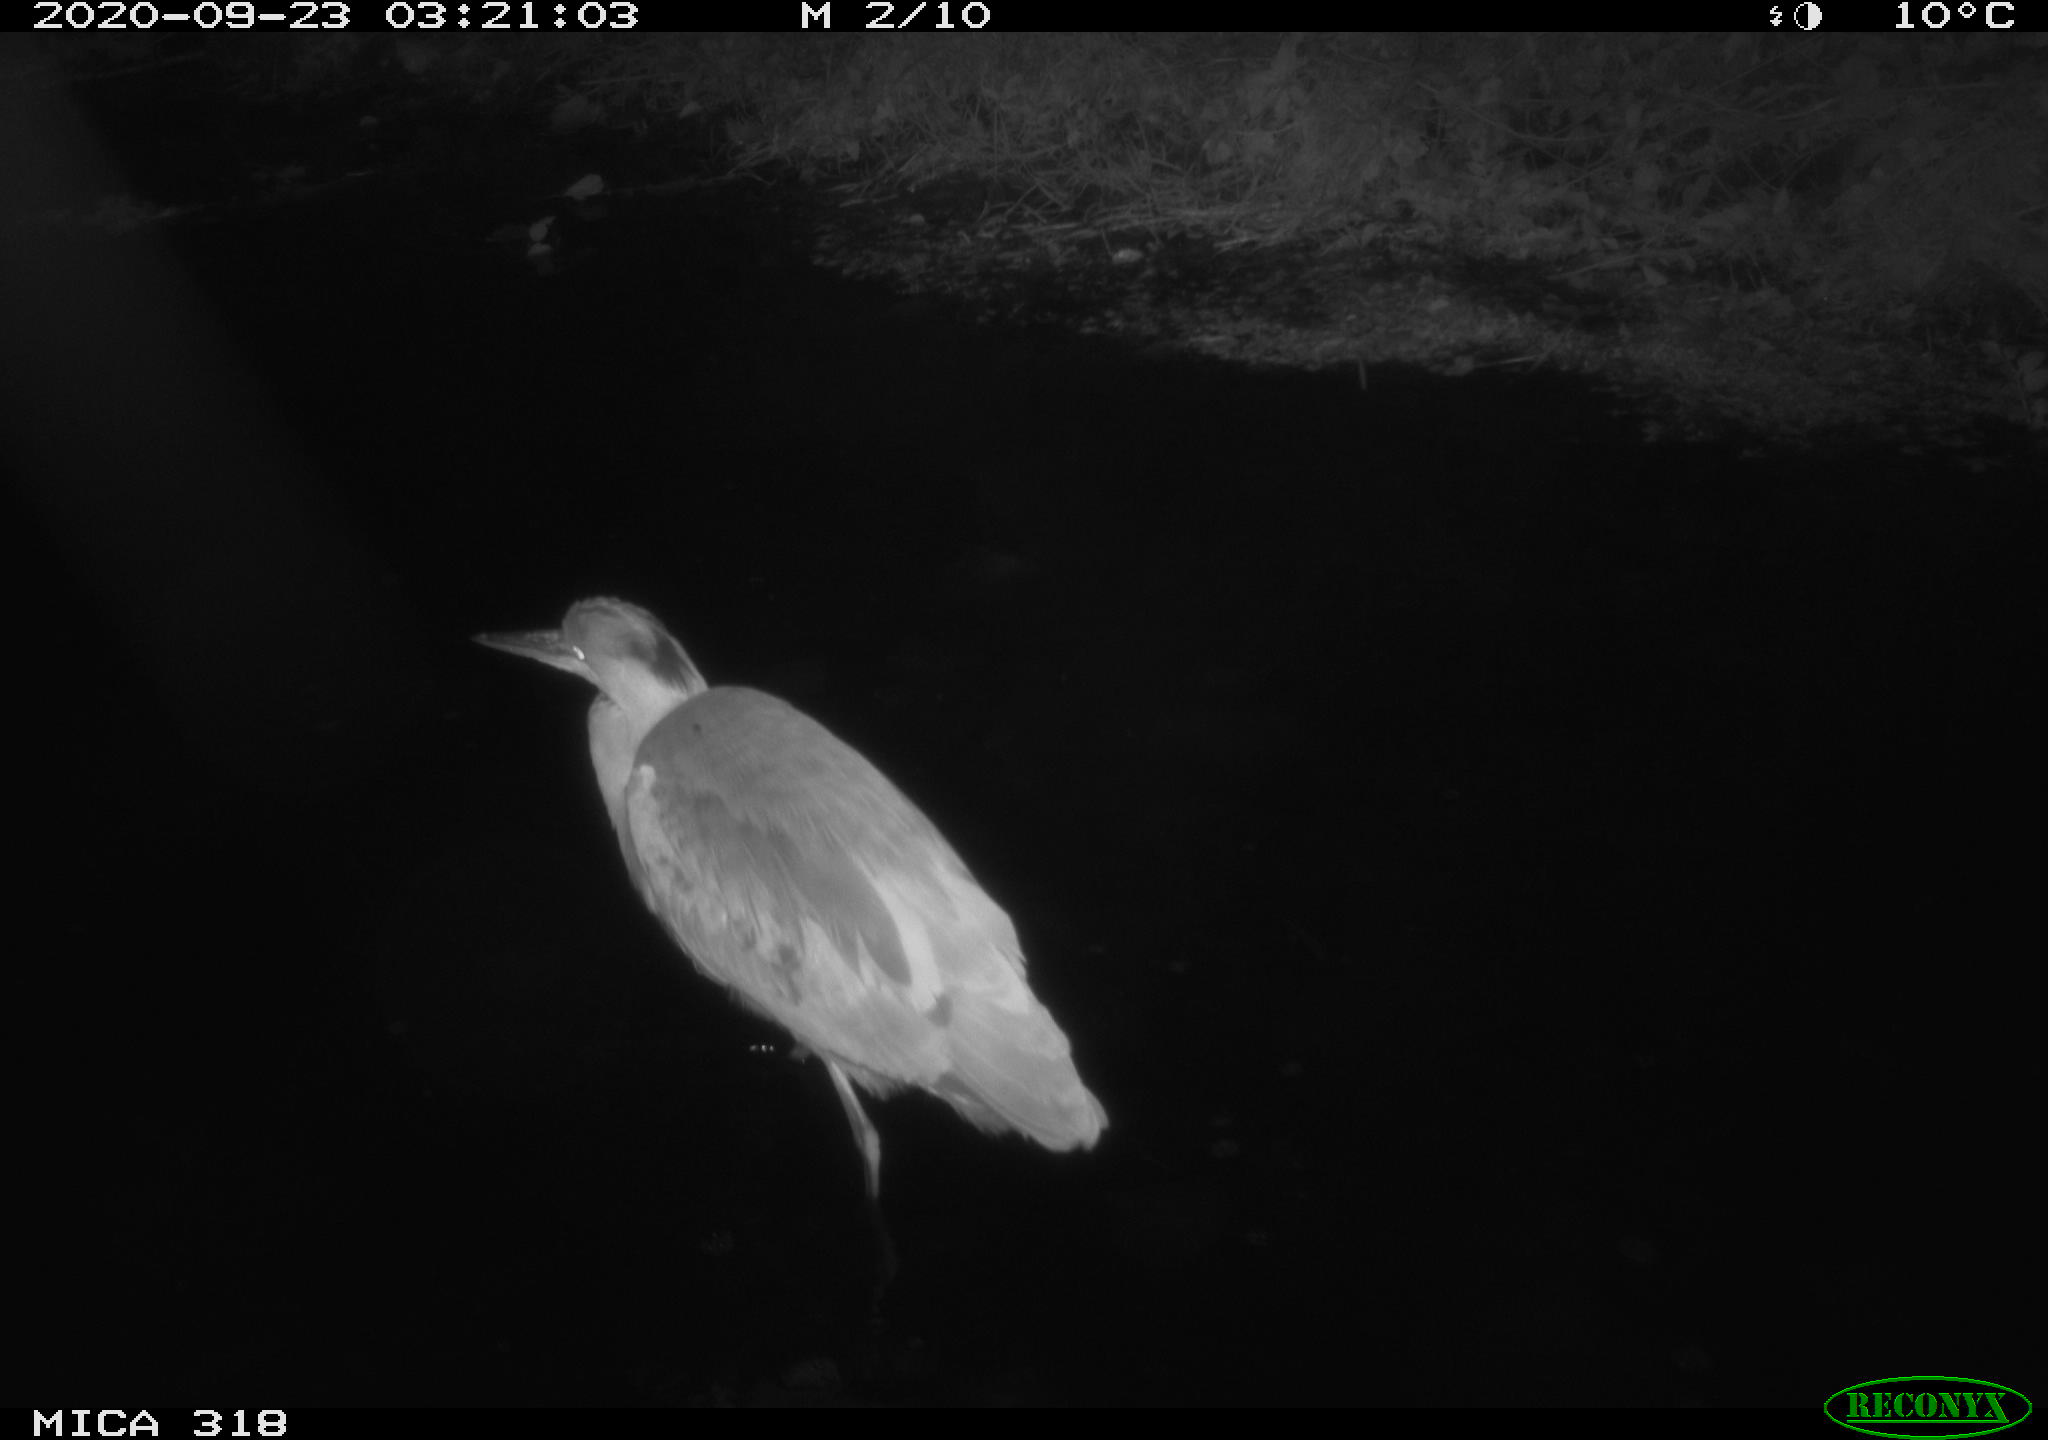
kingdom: Animalia
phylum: Chordata
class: Aves
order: Pelecaniformes
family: Ardeidae
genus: Ardea
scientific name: Ardea cinerea
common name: Grey heron
